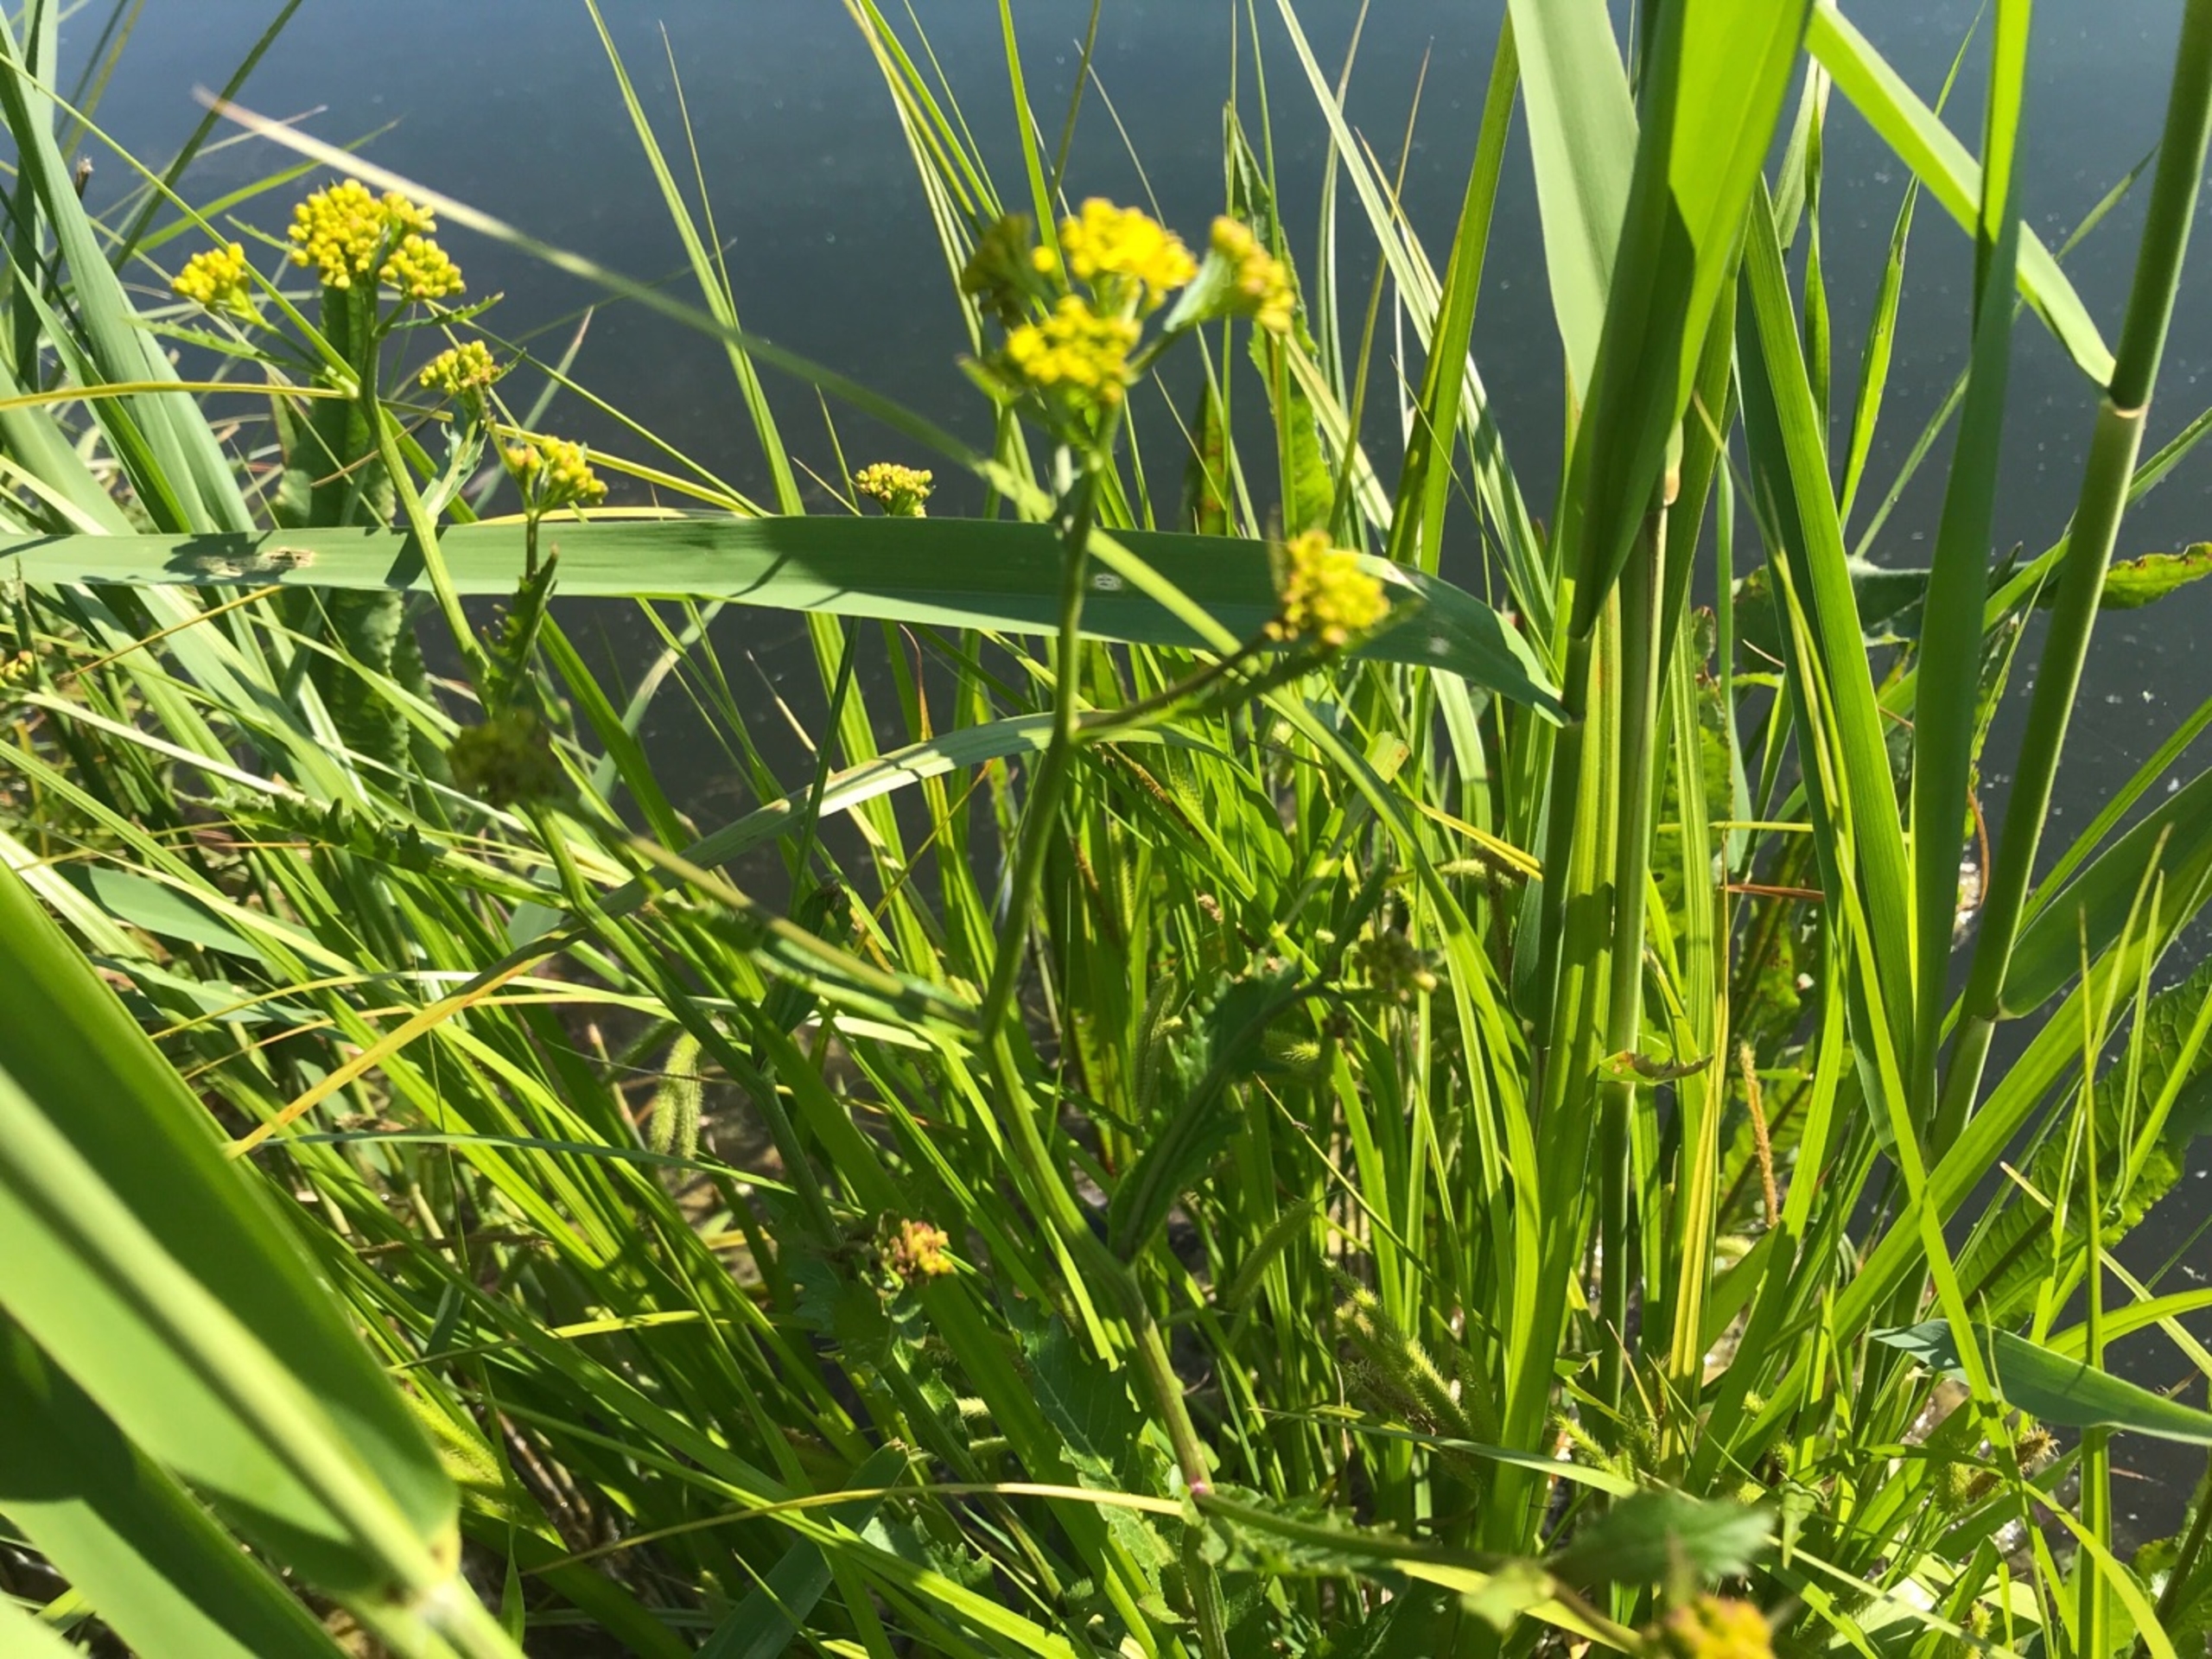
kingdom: Plantae
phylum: Tracheophyta
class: Magnoliopsida
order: Brassicales
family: Brassicaceae
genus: Rorippa
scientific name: Rorippa amphibia
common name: Vandpeberrod
